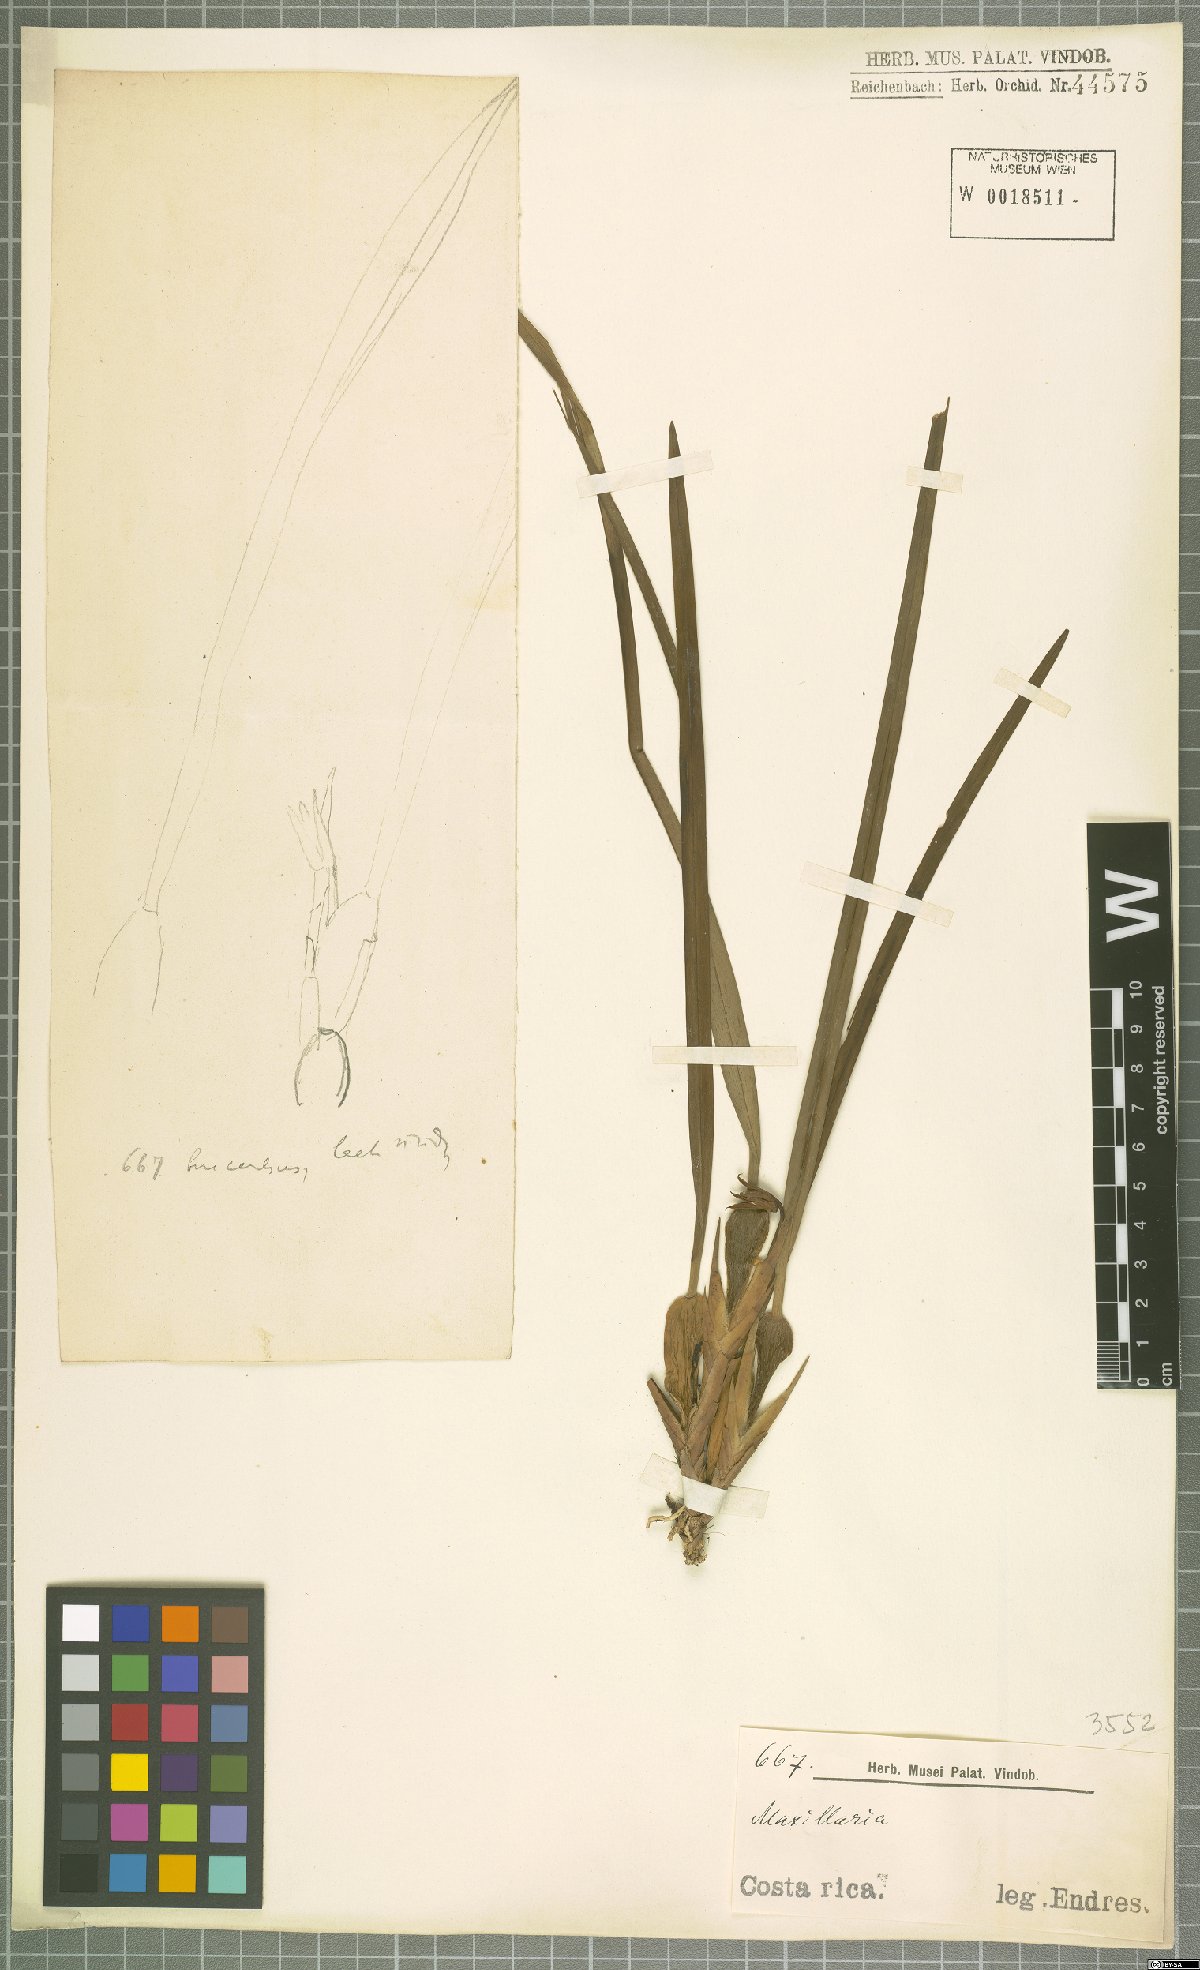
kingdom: Plantae
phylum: Tracheophyta
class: Liliopsida
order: Asparagales
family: Orchidaceae
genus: Maxillaria
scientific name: Maxillaria
